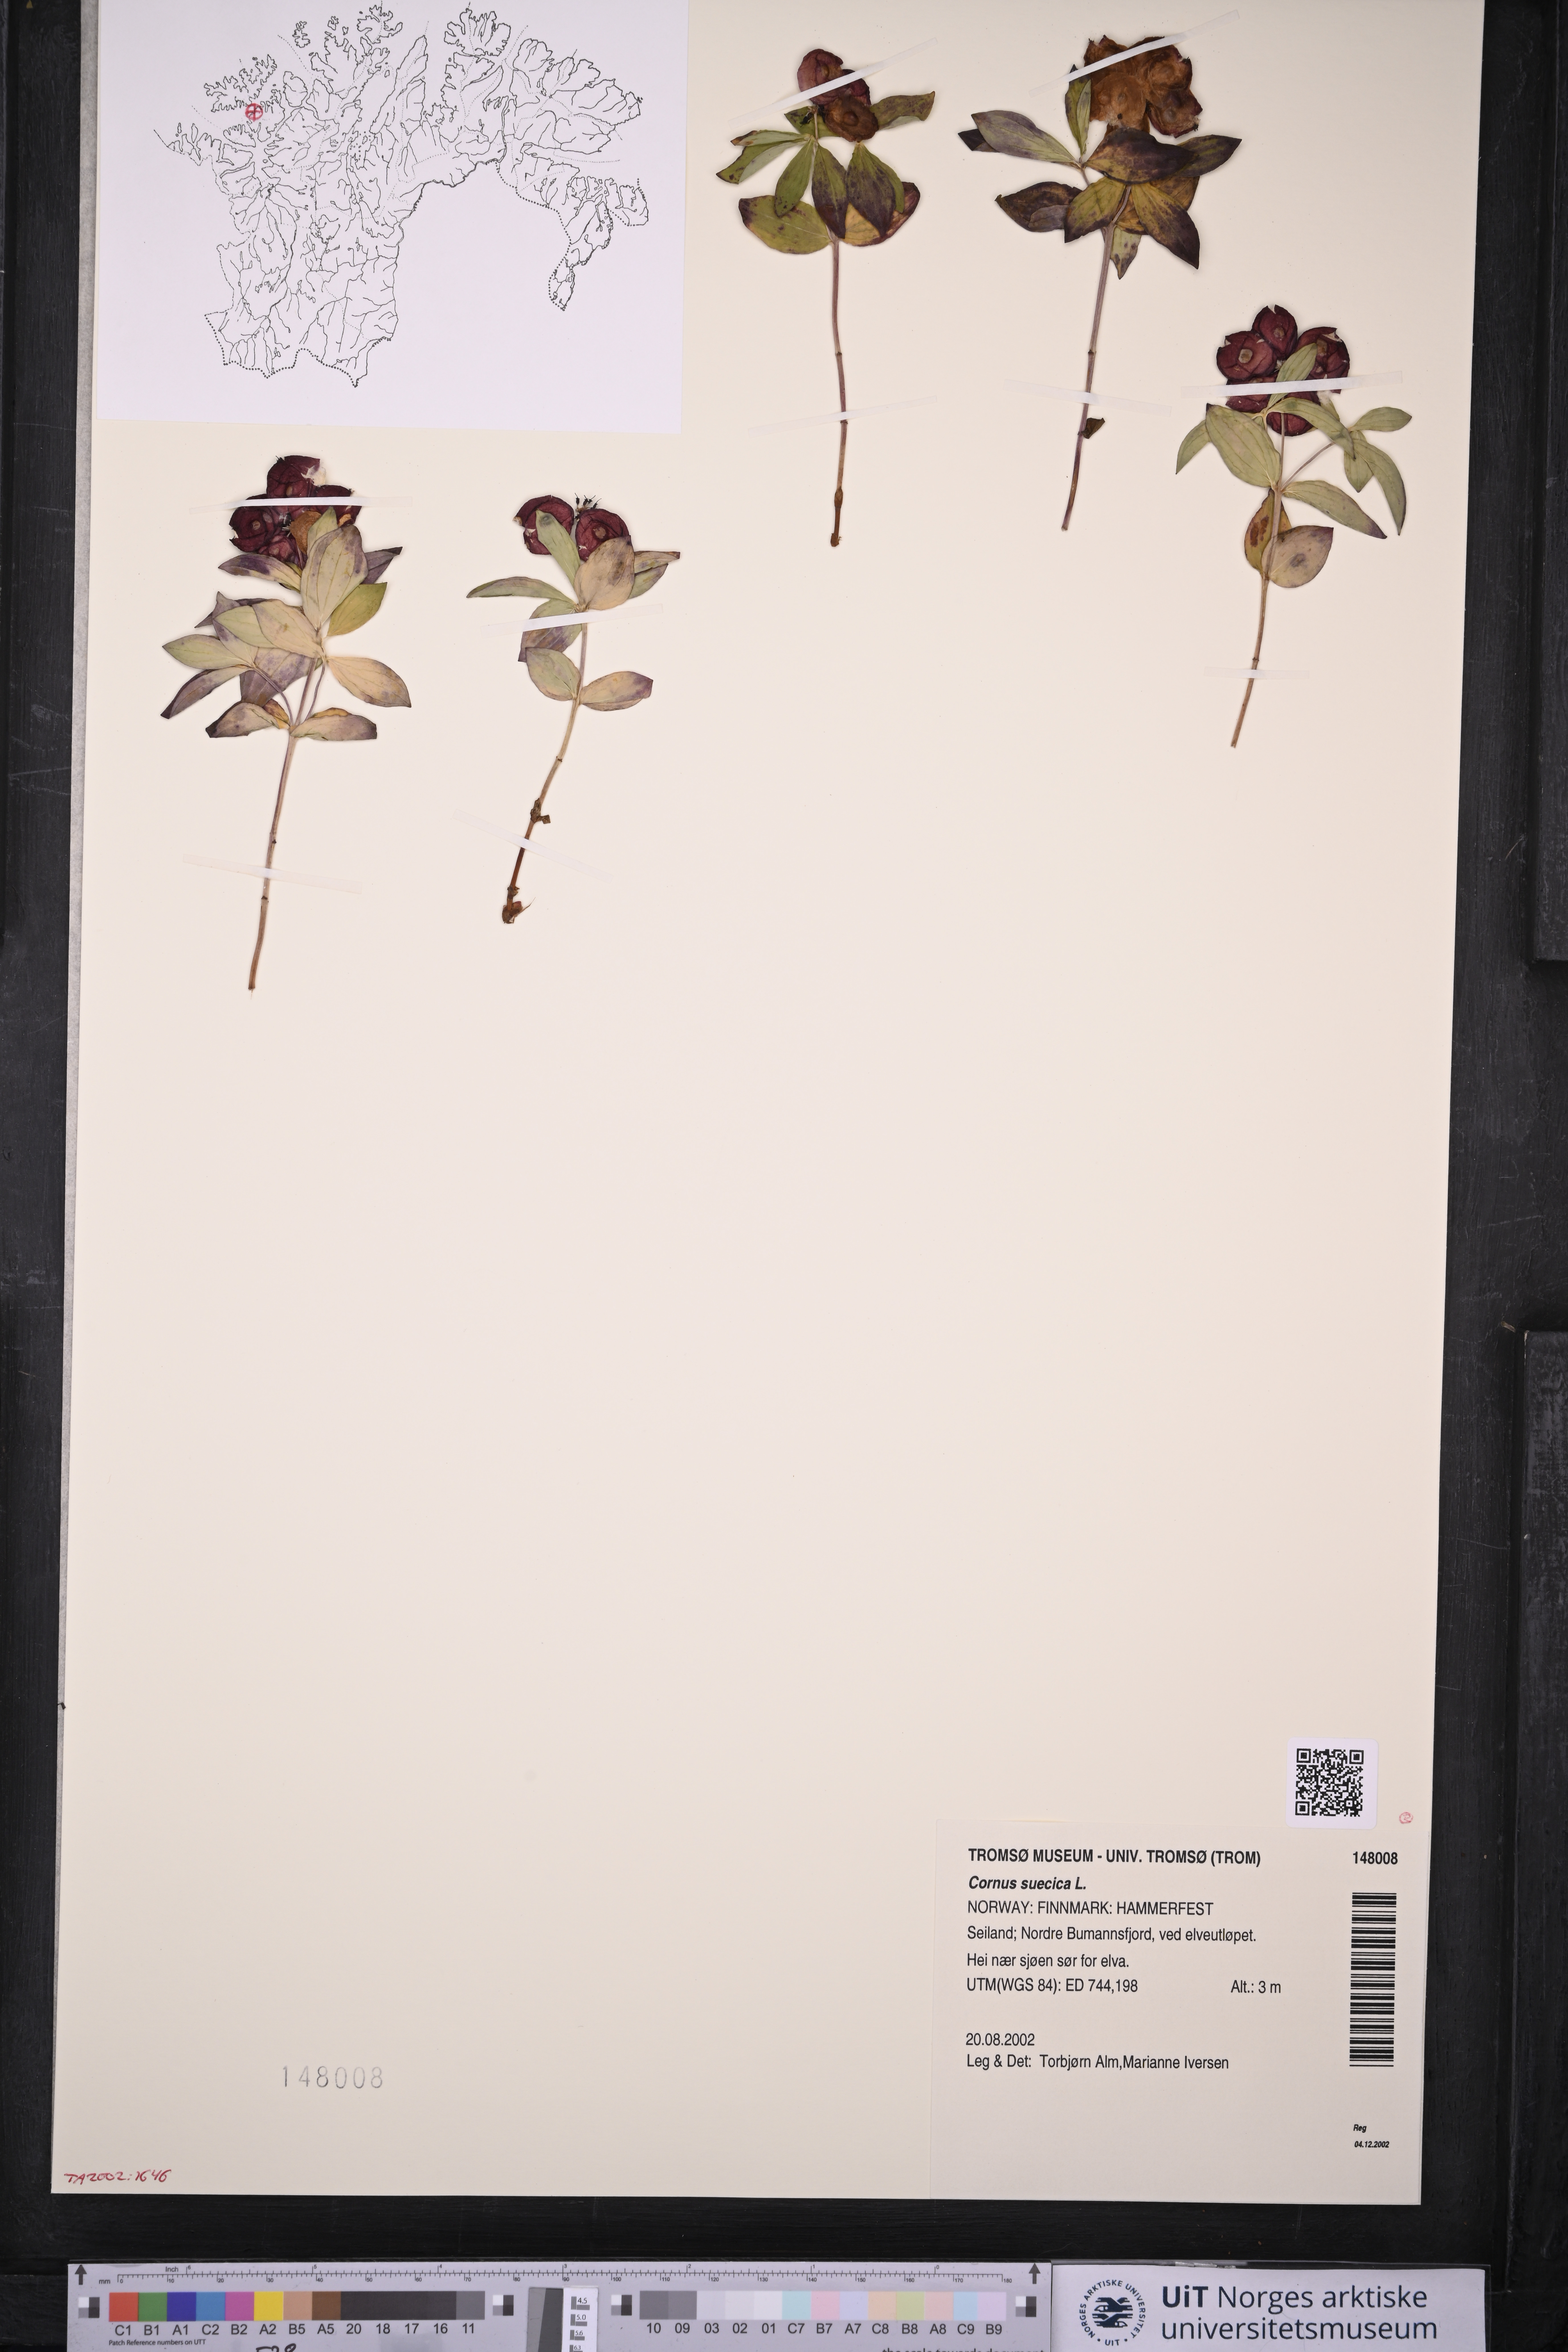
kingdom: Plantae
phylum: Tracheophyta
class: Magnoliopsida
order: Cornales
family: Cornaceae
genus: Cornus
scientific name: Cornus suecica
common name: Dwarf cornel
